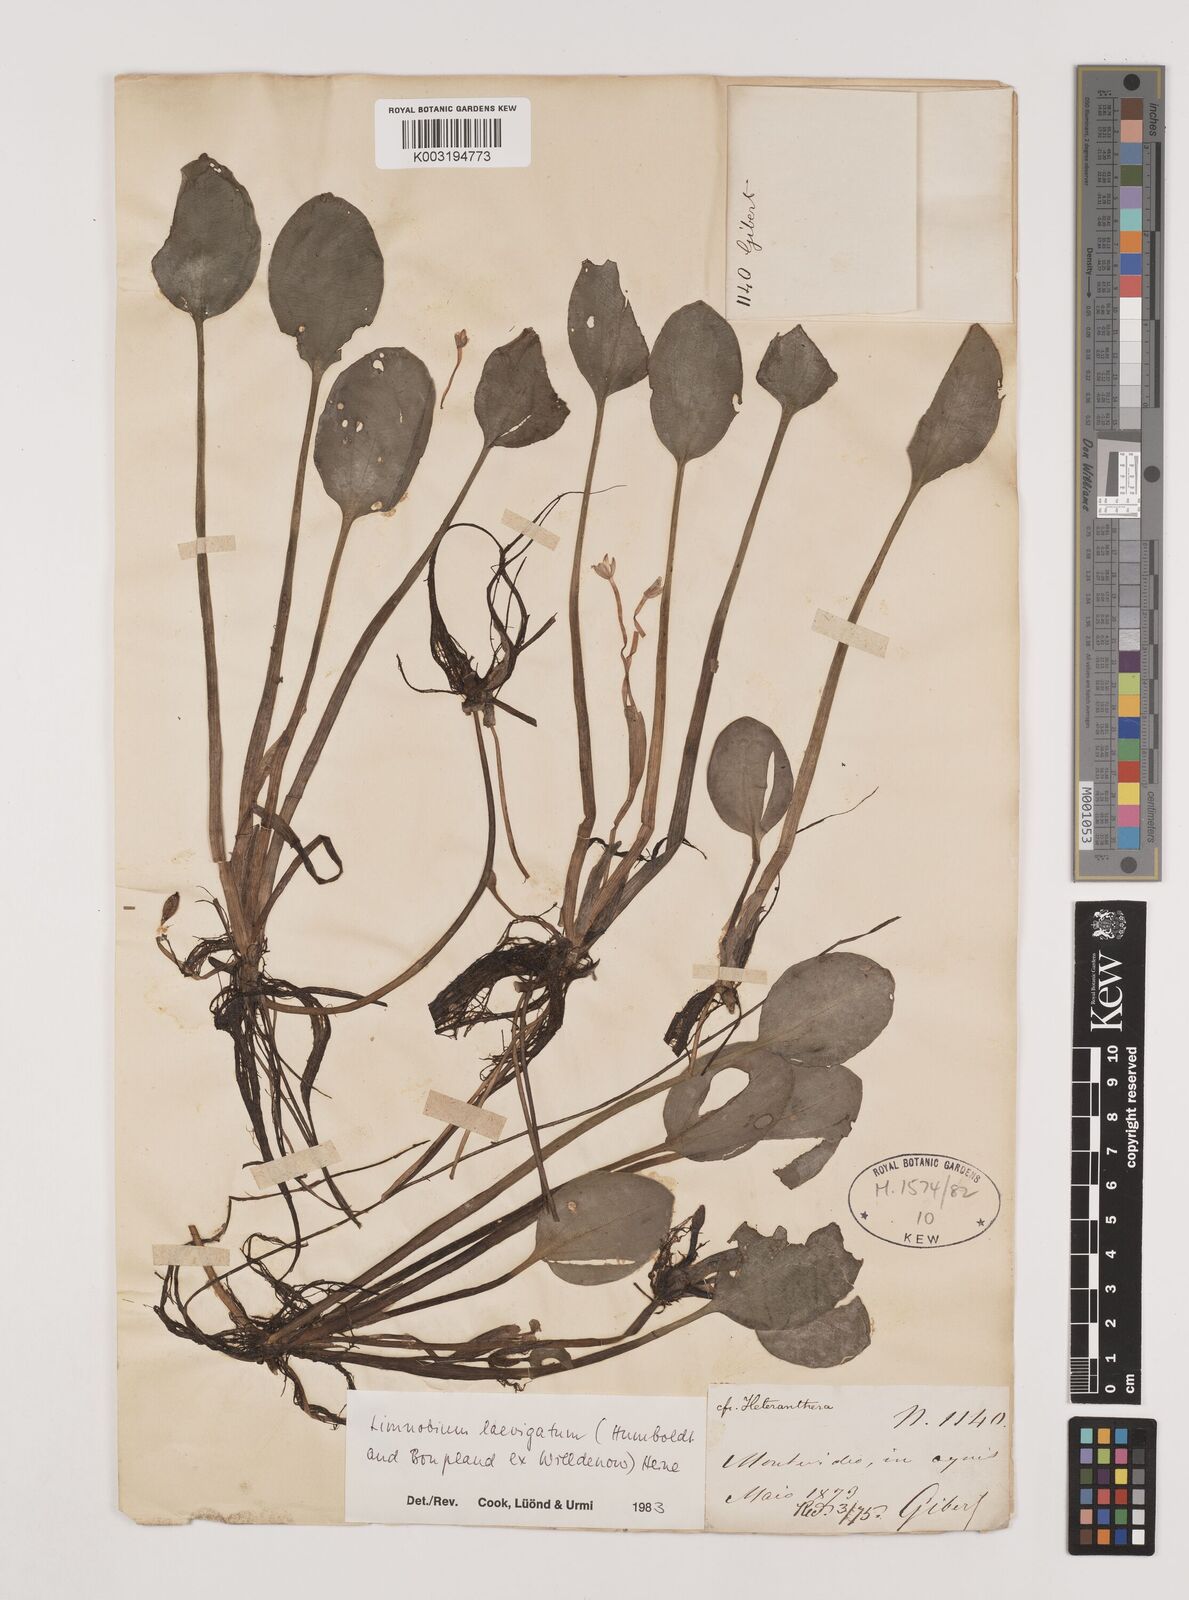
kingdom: Plantae
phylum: Tracheophyta
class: Liliopsida
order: Alismatales
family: Hydrocharitaceae
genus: Hydrocharis
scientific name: Hydrocharis laevigata
